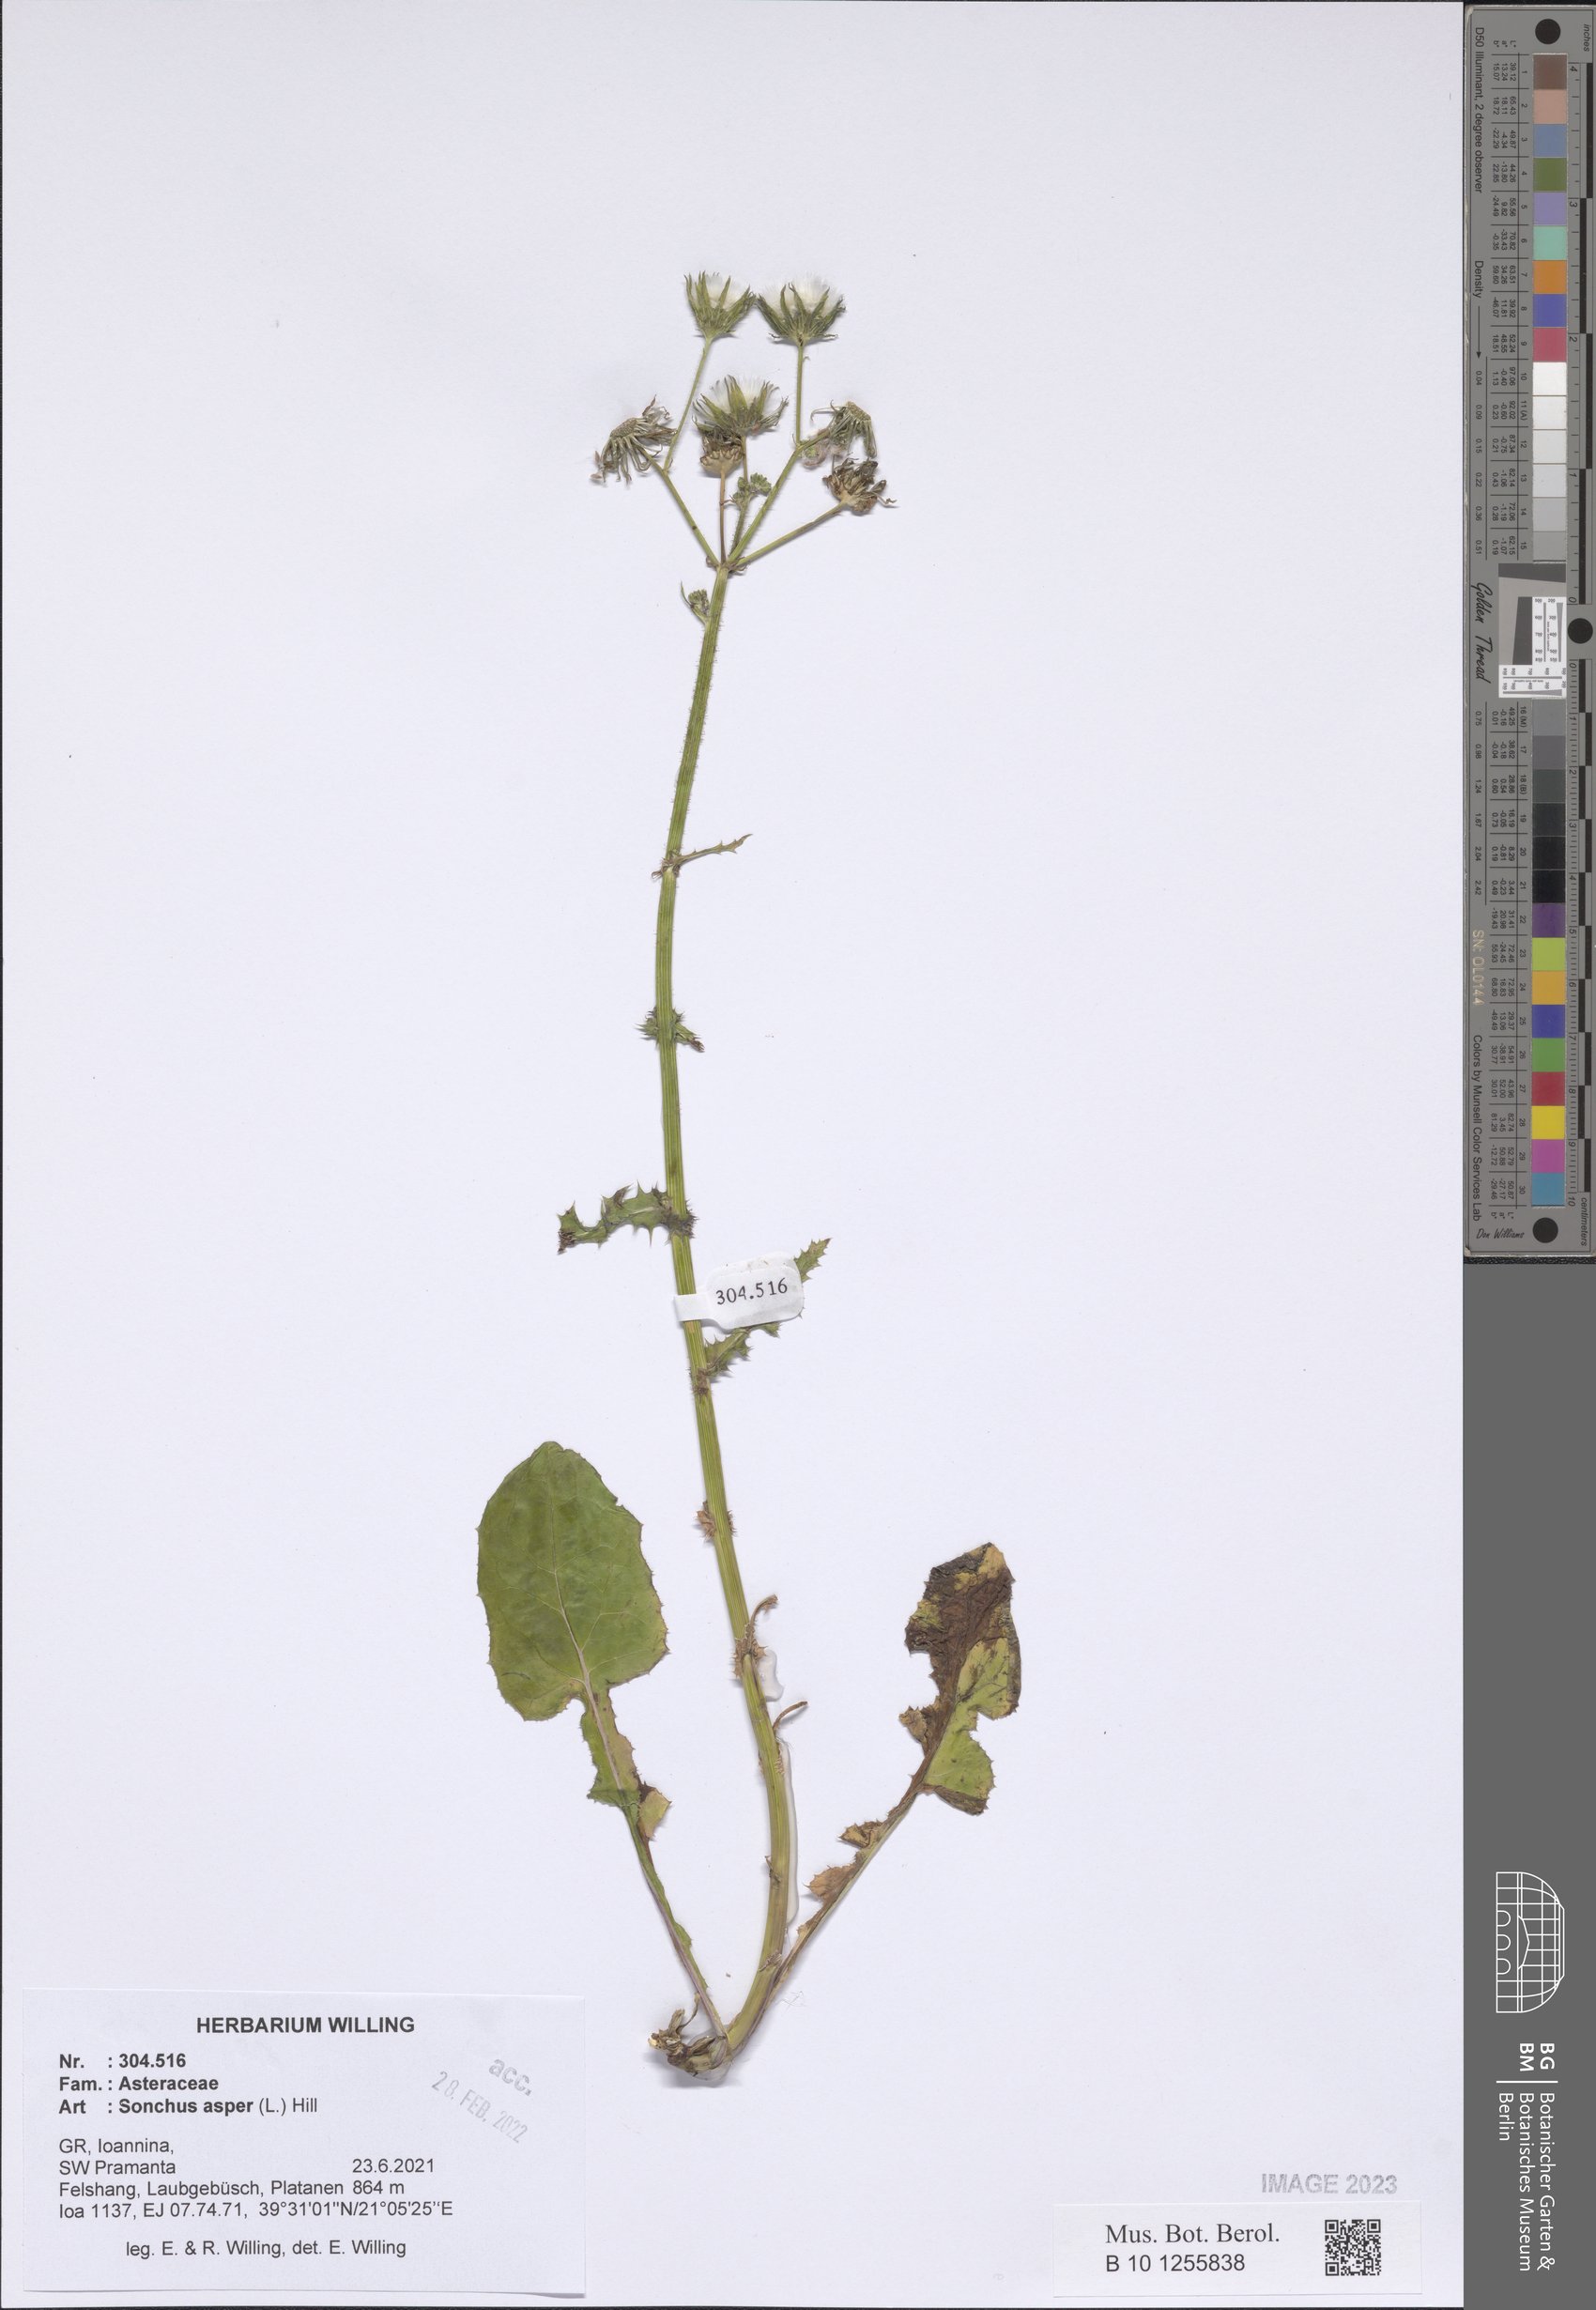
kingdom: Plantae
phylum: Tracheophyta
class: Magnoliopsida
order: Asterales
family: Asteraceae
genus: Sonchus
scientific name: Sonchus asper
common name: Prickly sow-thistle
